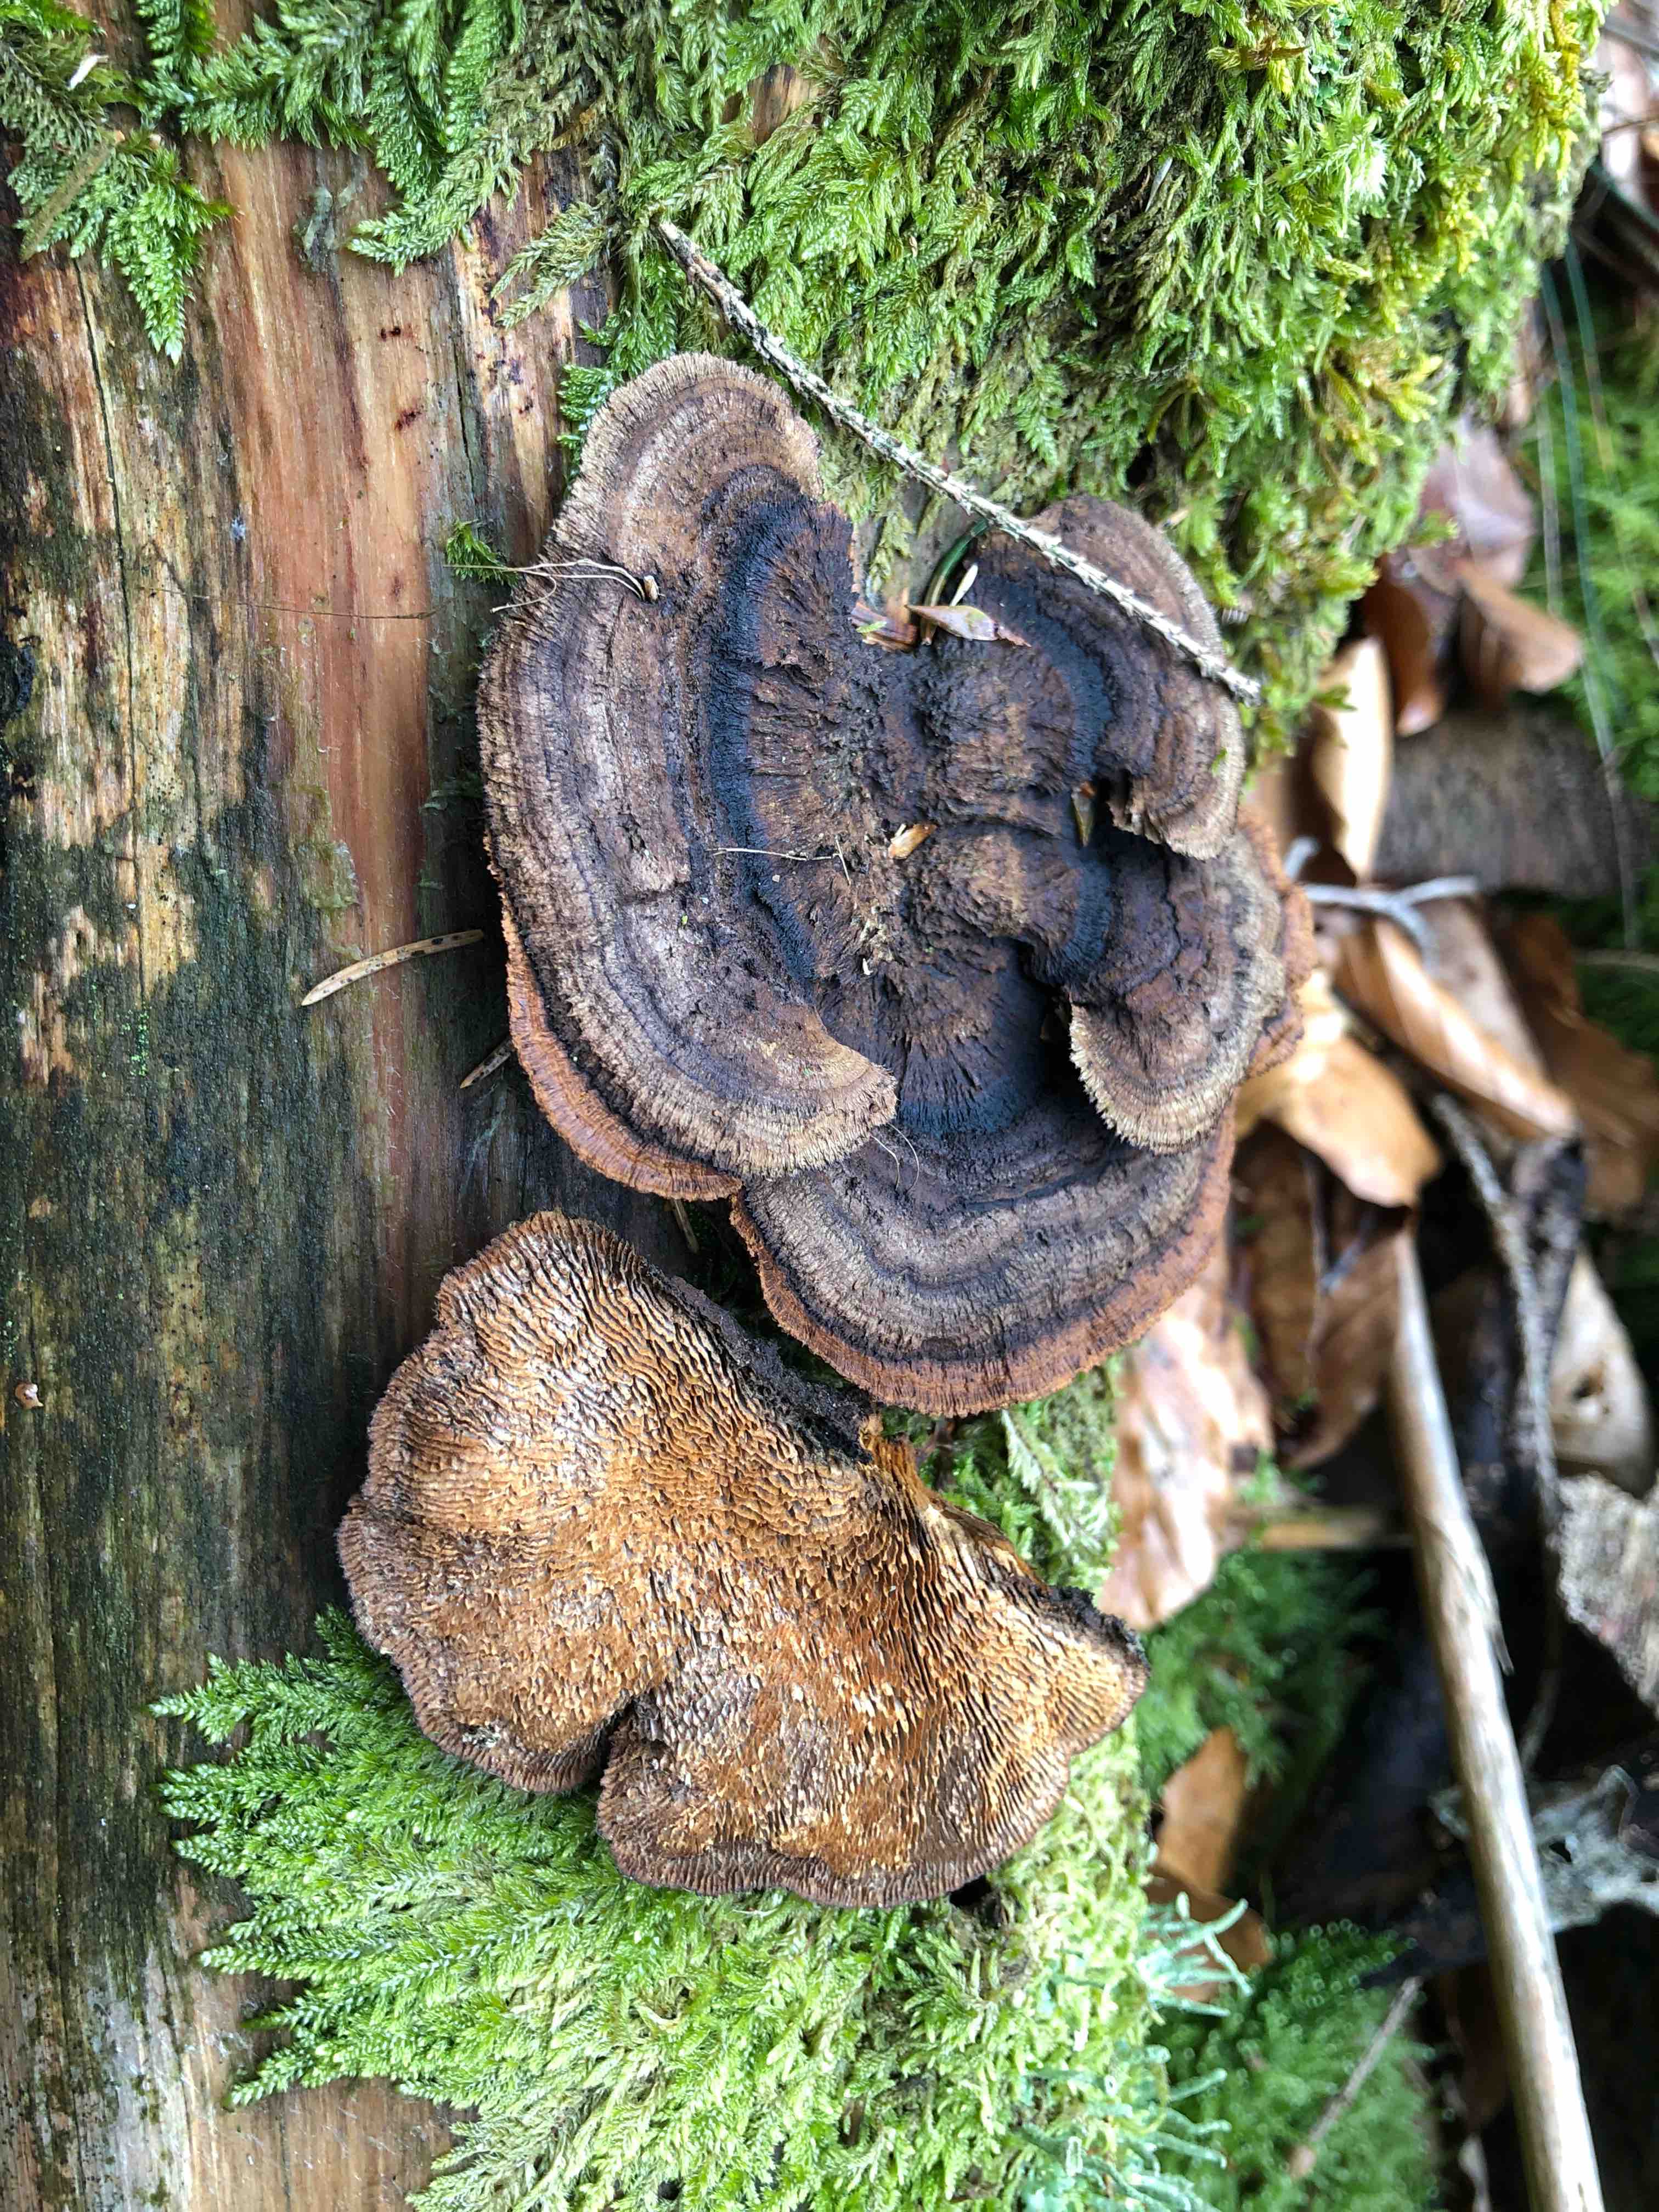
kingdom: Fungi
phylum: Basidiomycota
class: Agaricomycetes
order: Gloeophyllales
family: Gloeophyllaceae
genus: Gloeophyllum
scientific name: Gloeophyllum sepiarium
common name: fyrre-korkhat
